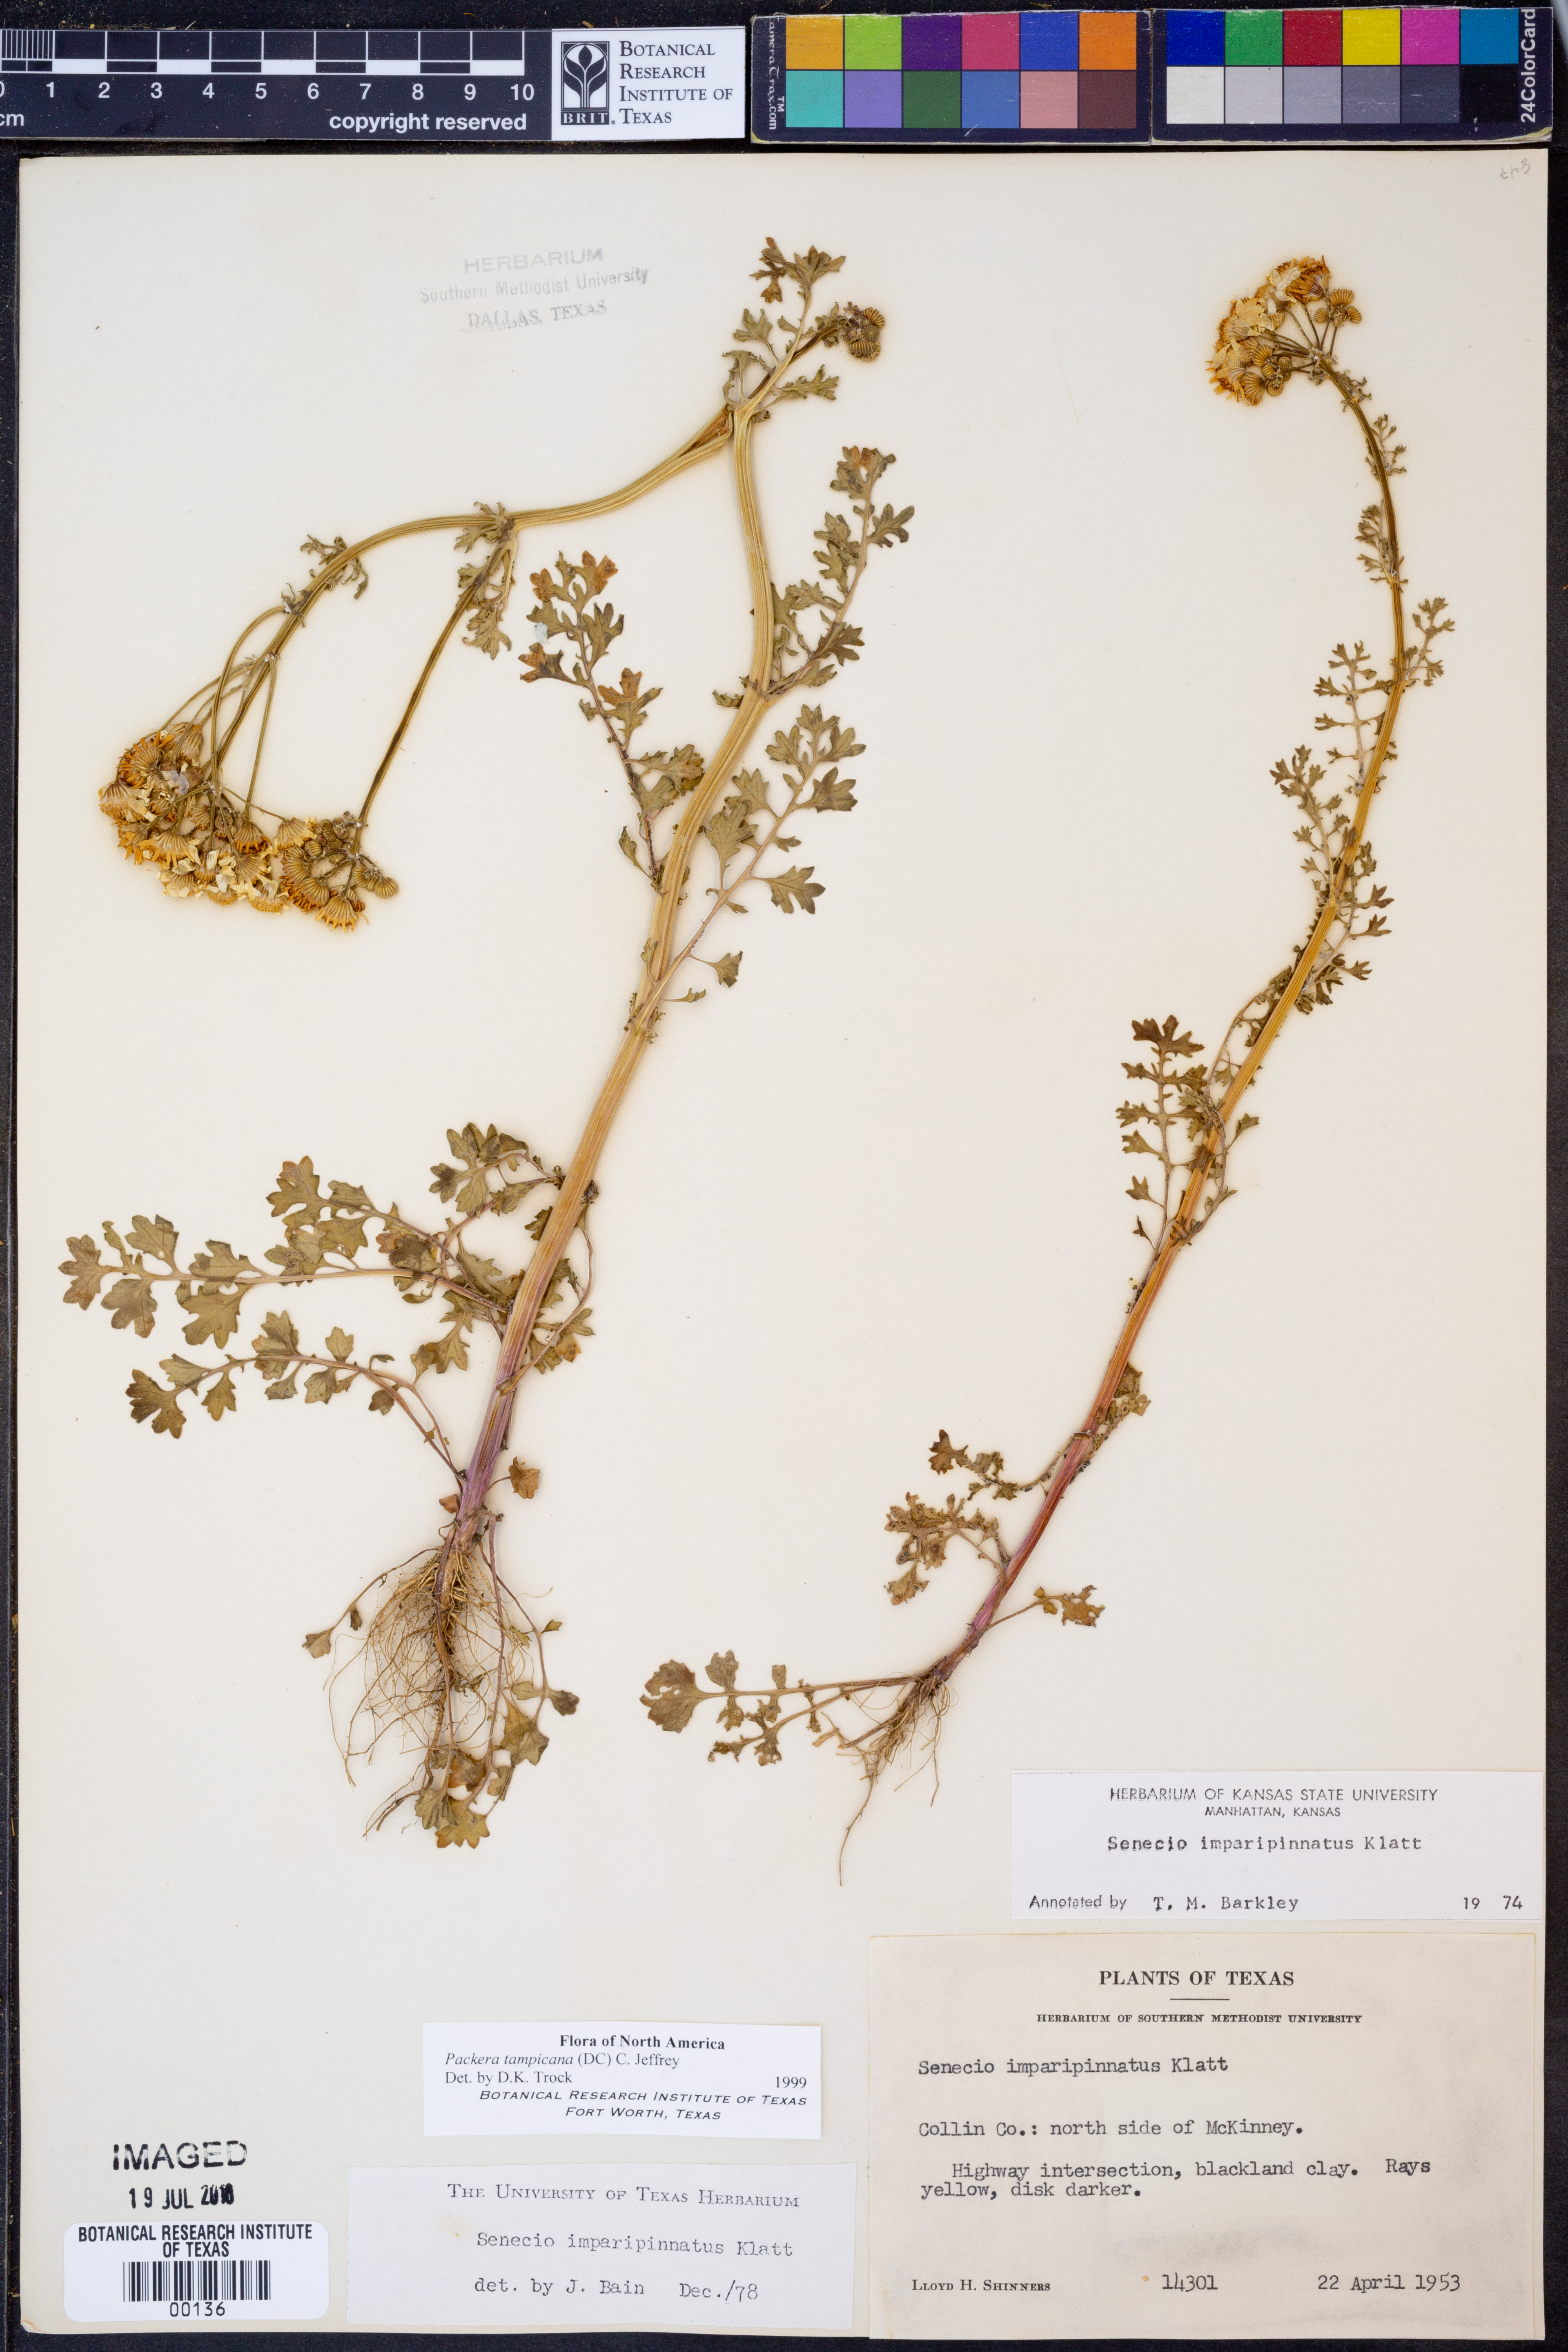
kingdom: Plantae
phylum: Tracheophyta
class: Magnoliopsida
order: Asterales
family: Asteraceae
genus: Packera
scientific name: Packera tampicana
